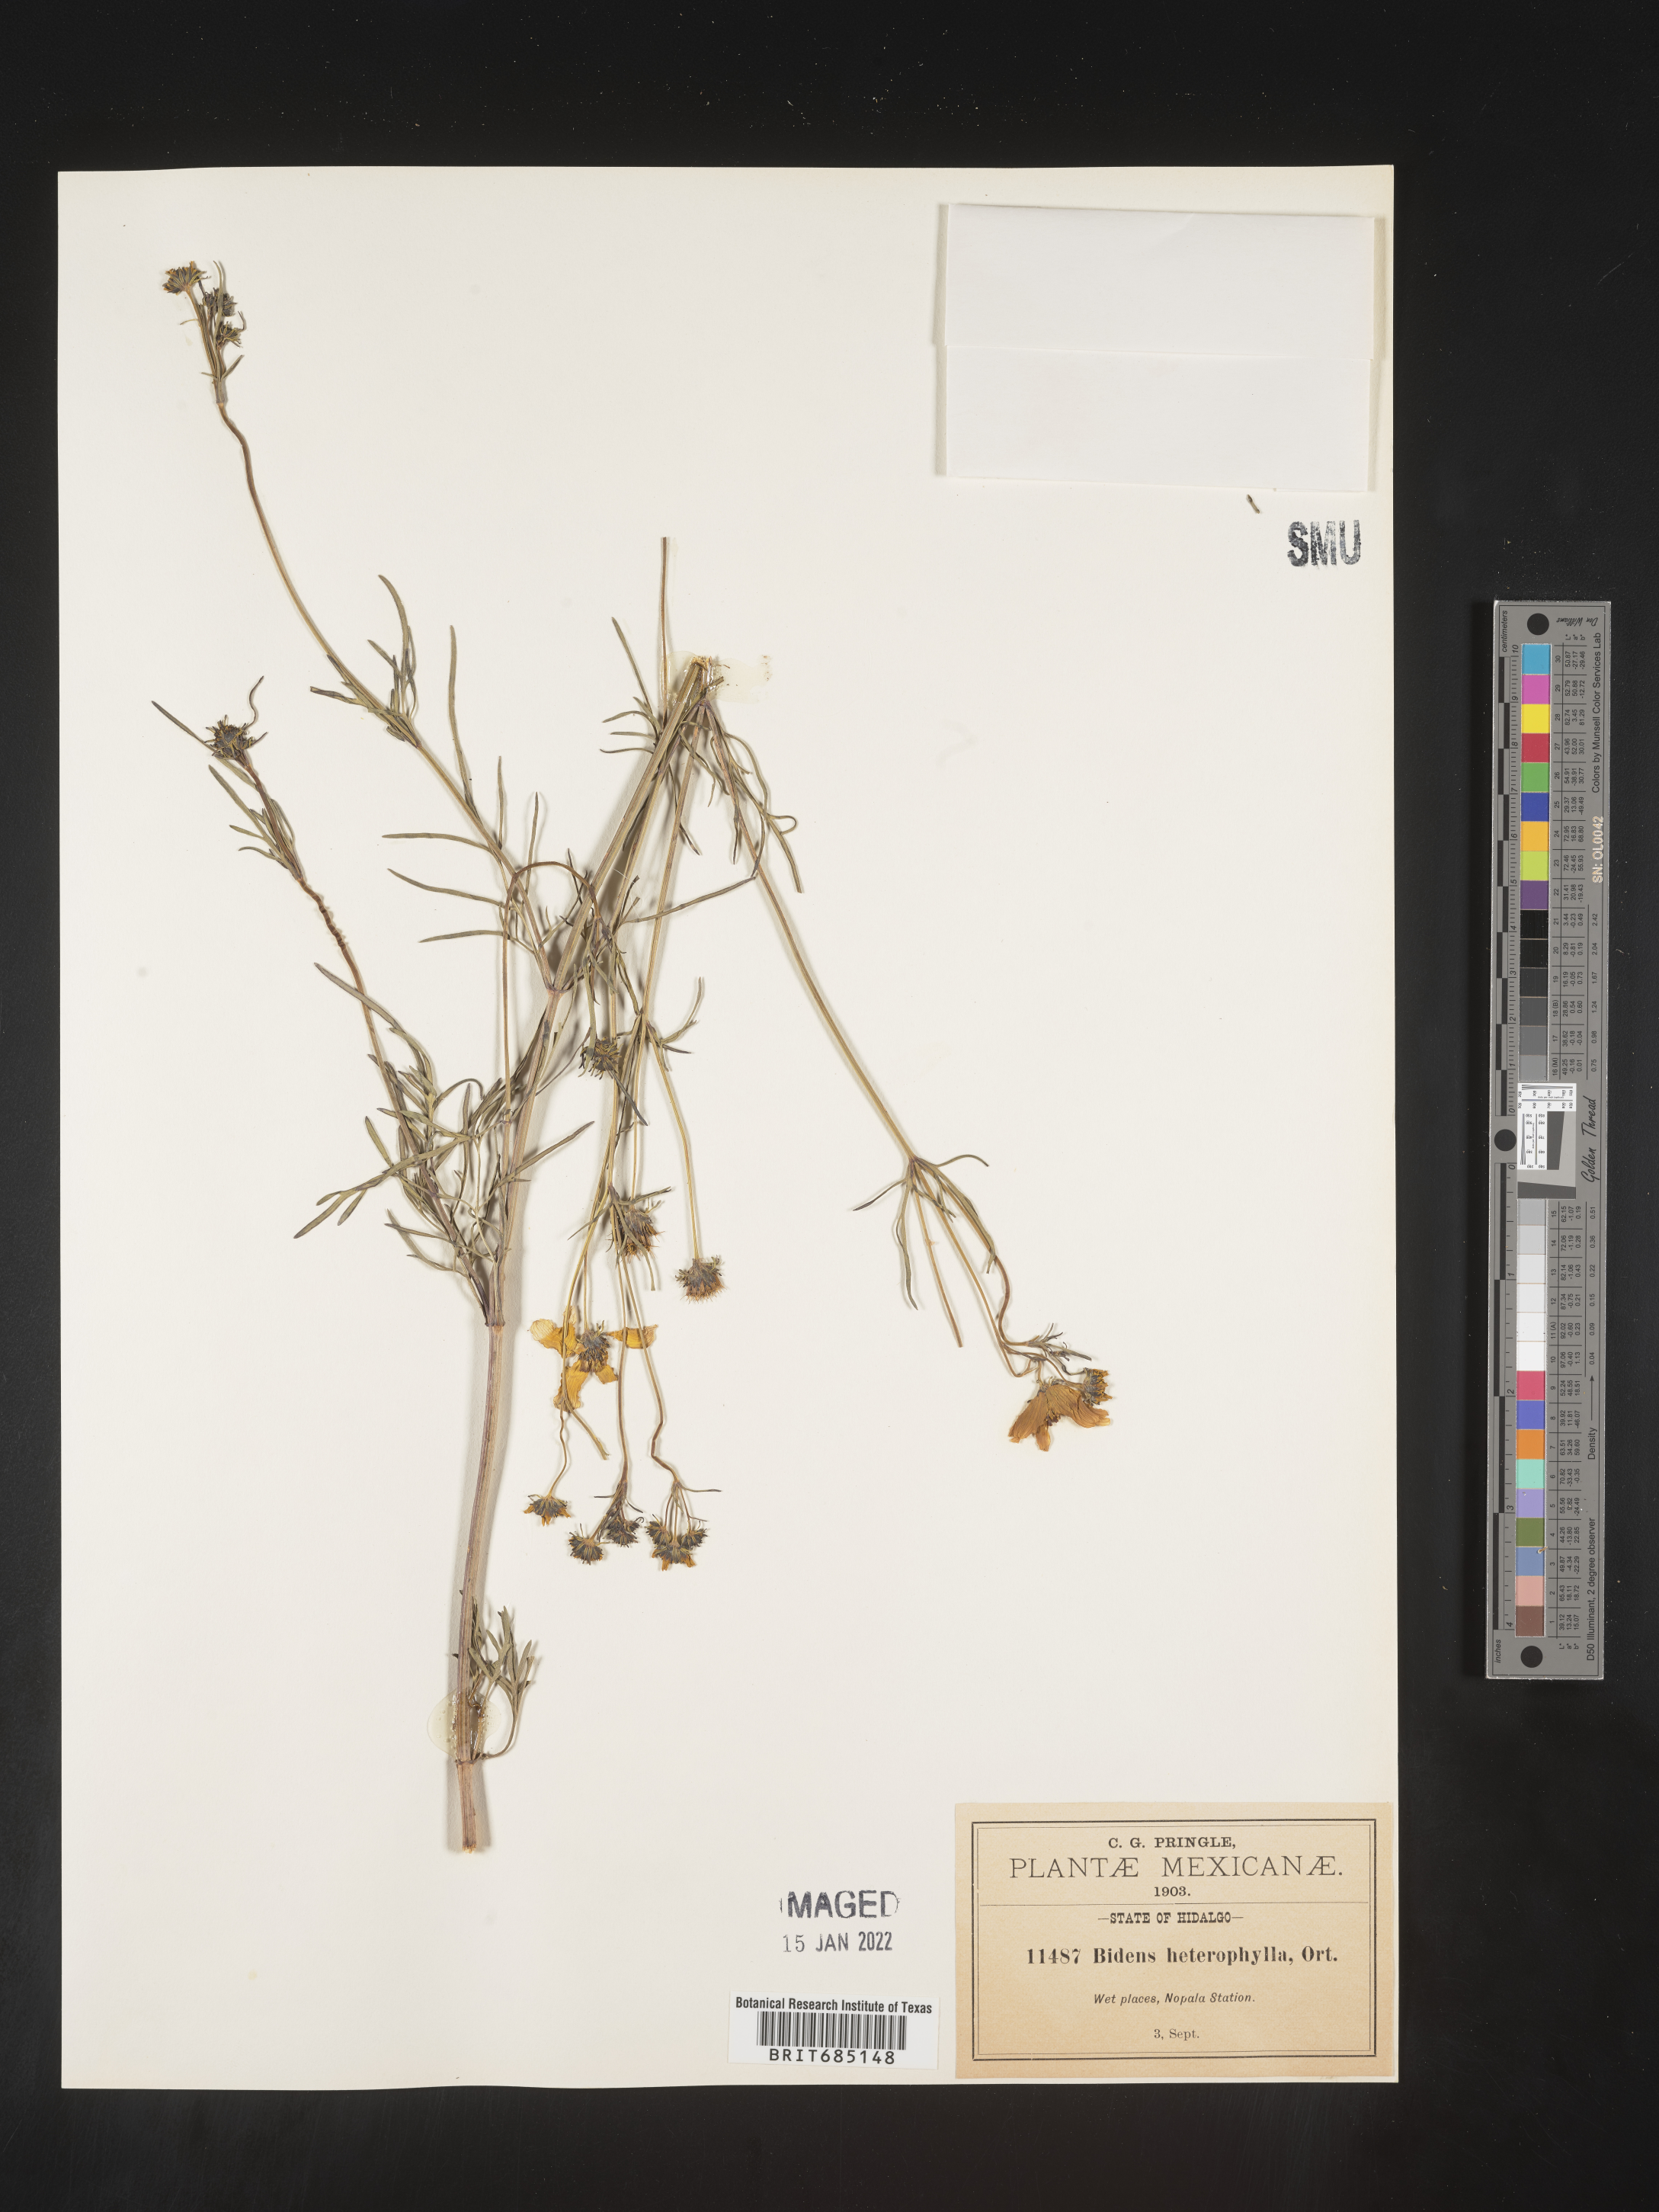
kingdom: Plantae
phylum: Tracheophyta
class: Magnoliopsida
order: Asterales
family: Asteraceae
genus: Bidens
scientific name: Bidens
